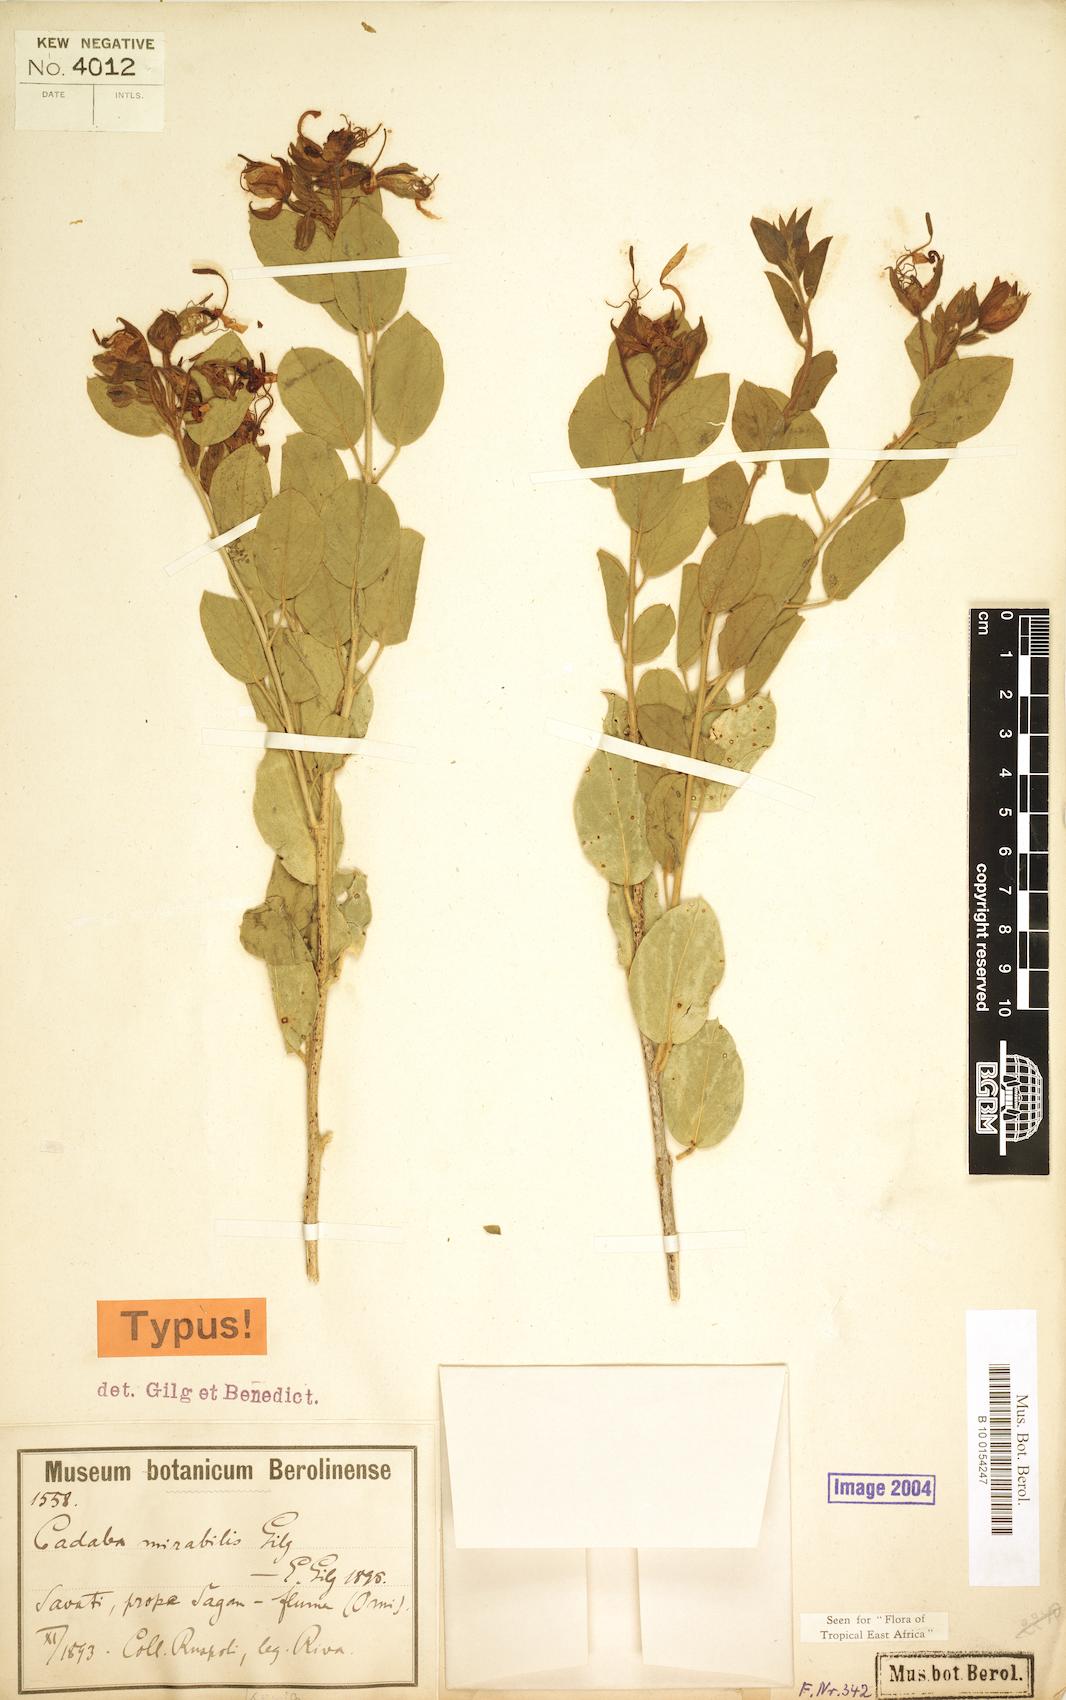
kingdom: Plantae
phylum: Tracheophyta
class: Magnoliopsida
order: Brassicales
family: Capparaceae
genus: Cadaba
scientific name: Cadaba mirabilis
